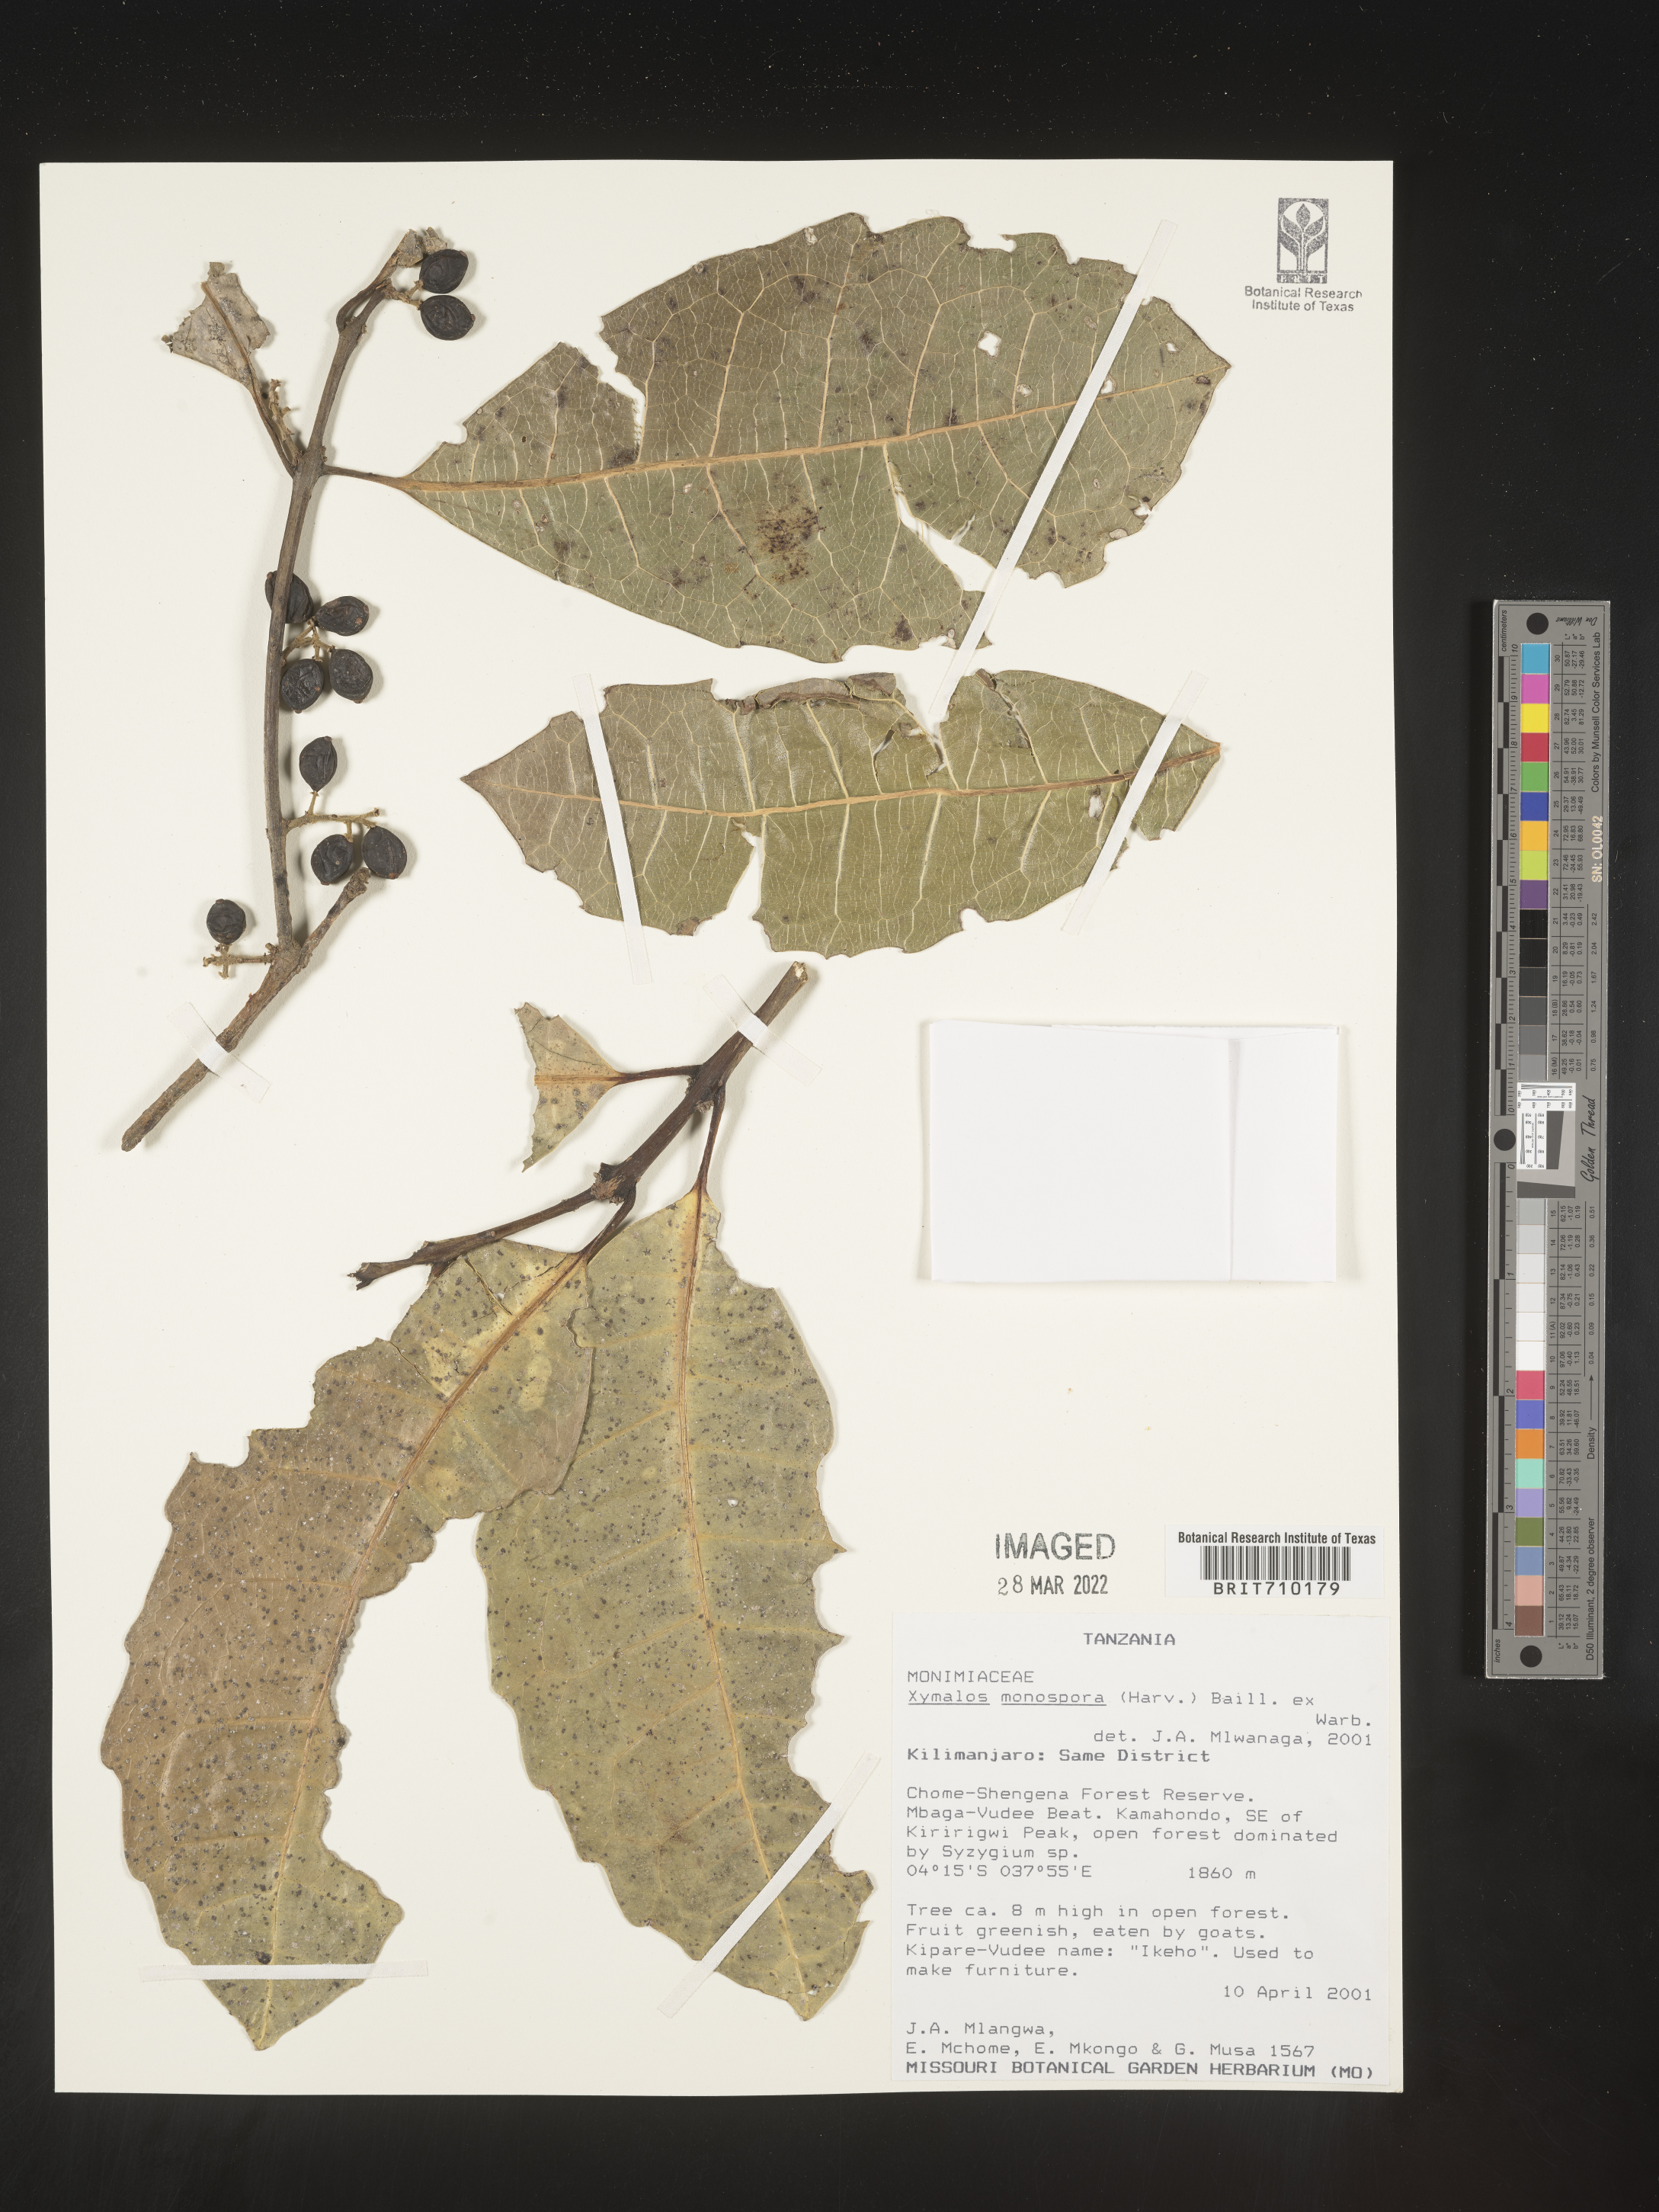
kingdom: Plantae
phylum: Tracheophyta
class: Magnoliopsida
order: Laurales
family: Monimiaceae
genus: Xymalos
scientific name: Xymalos
